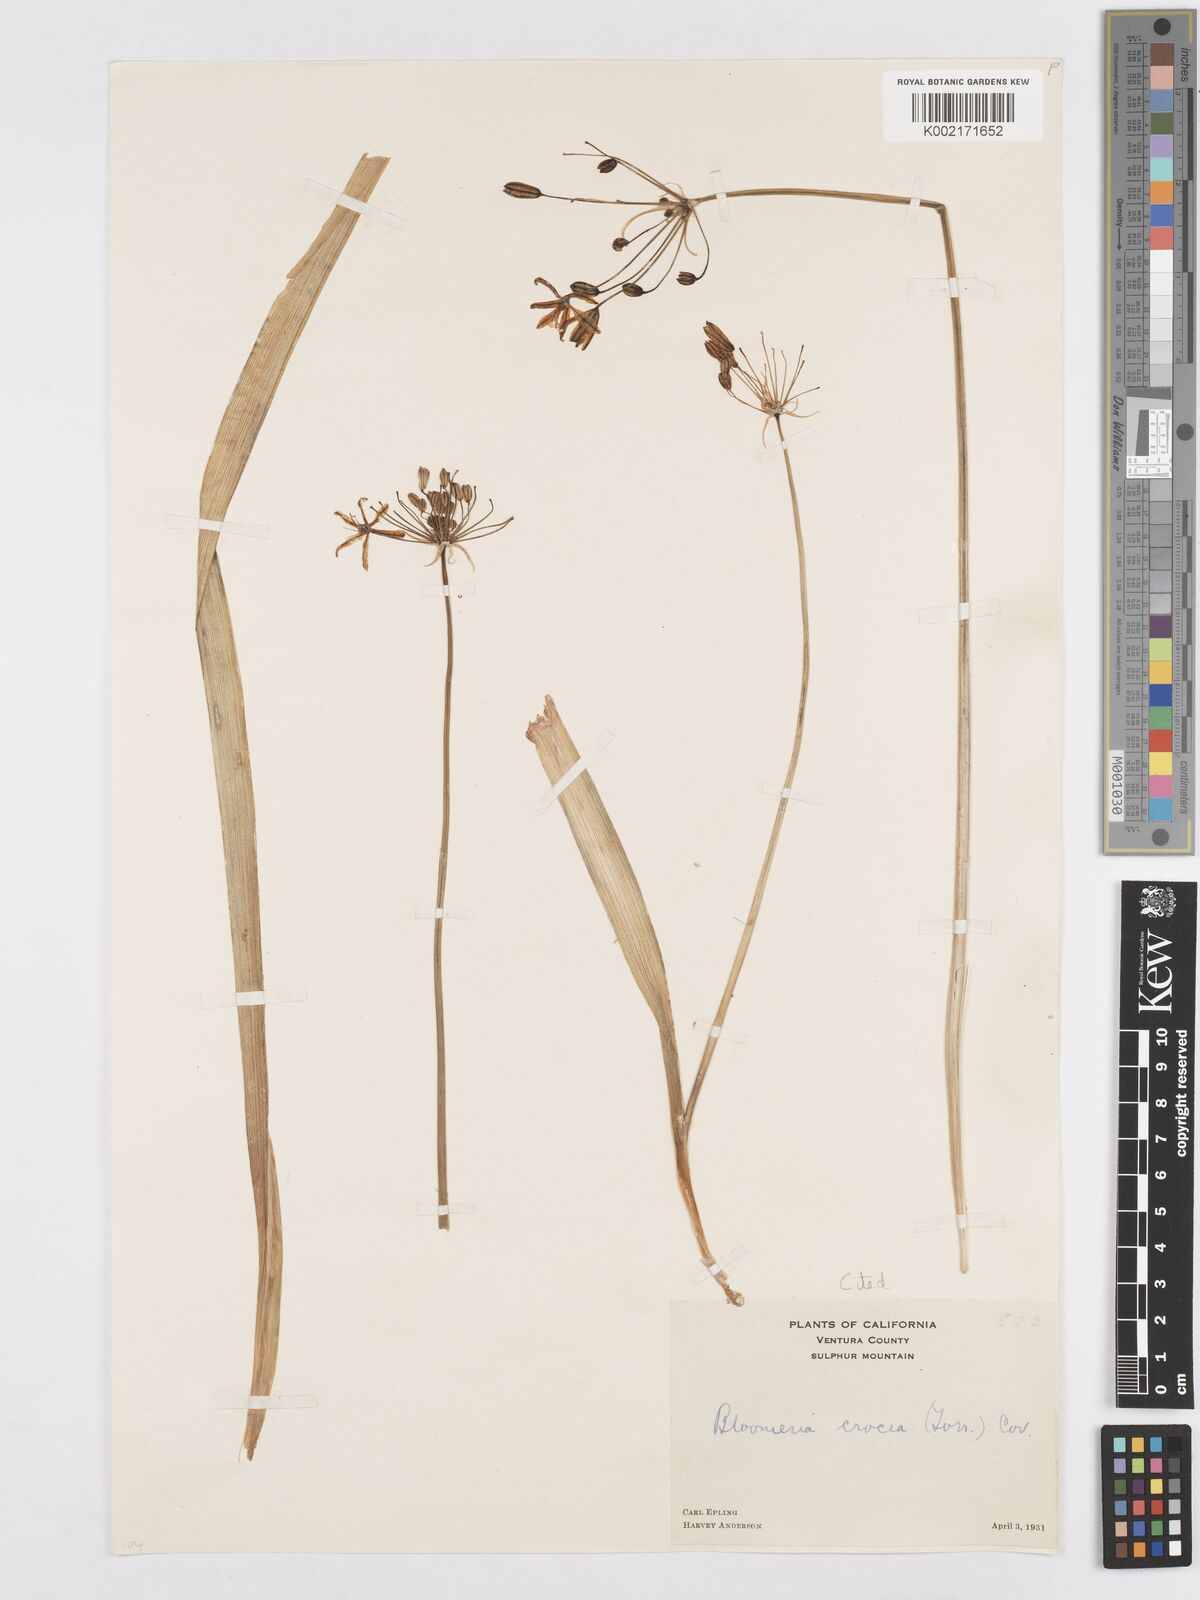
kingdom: Plantae
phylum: Tracheophyta
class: Liliopsida
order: Asparagales
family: Asparagaceae
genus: Bloomeria
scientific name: Bloomeria crocea
